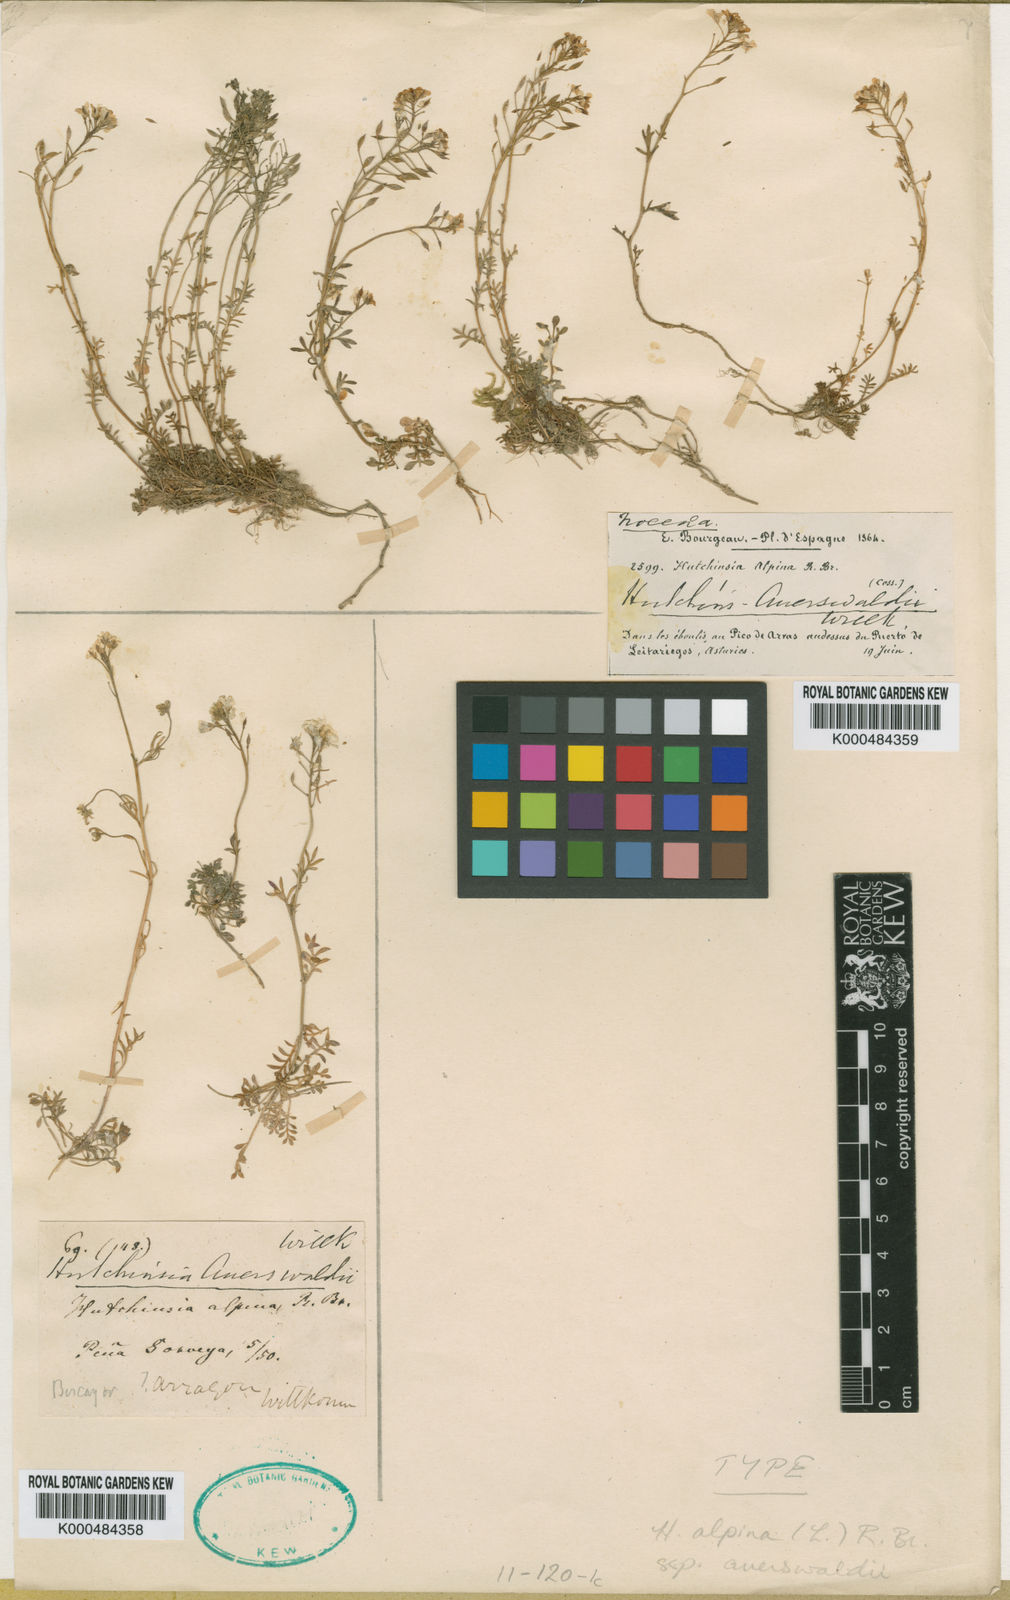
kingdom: Plantae
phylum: Tracheophyta
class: Magnoliopsida
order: Brassicales
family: Brassicaceae
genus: Hornungia
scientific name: Hornungia alpina
